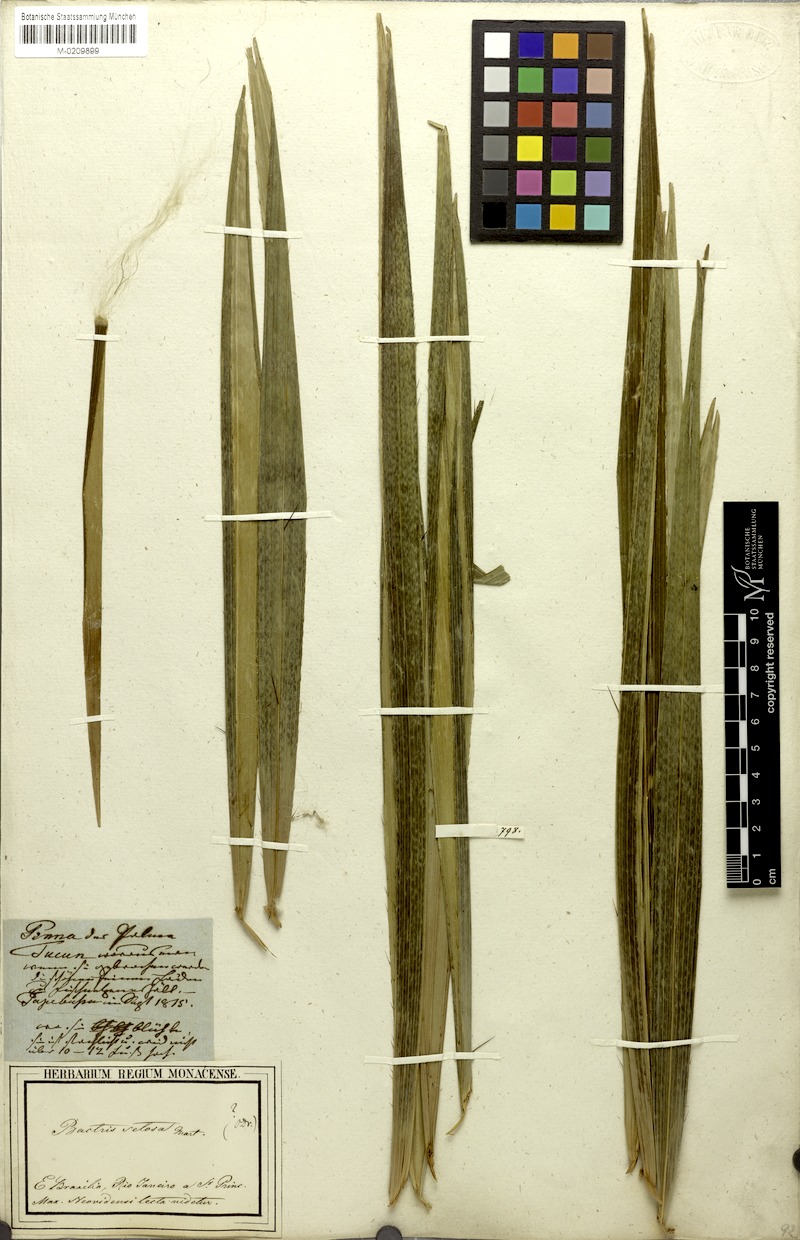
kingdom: Plantae
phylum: Tracheophyta
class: Liliopsida
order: Arecales
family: Arecaceae
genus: Bactris
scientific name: Bactris setosa
